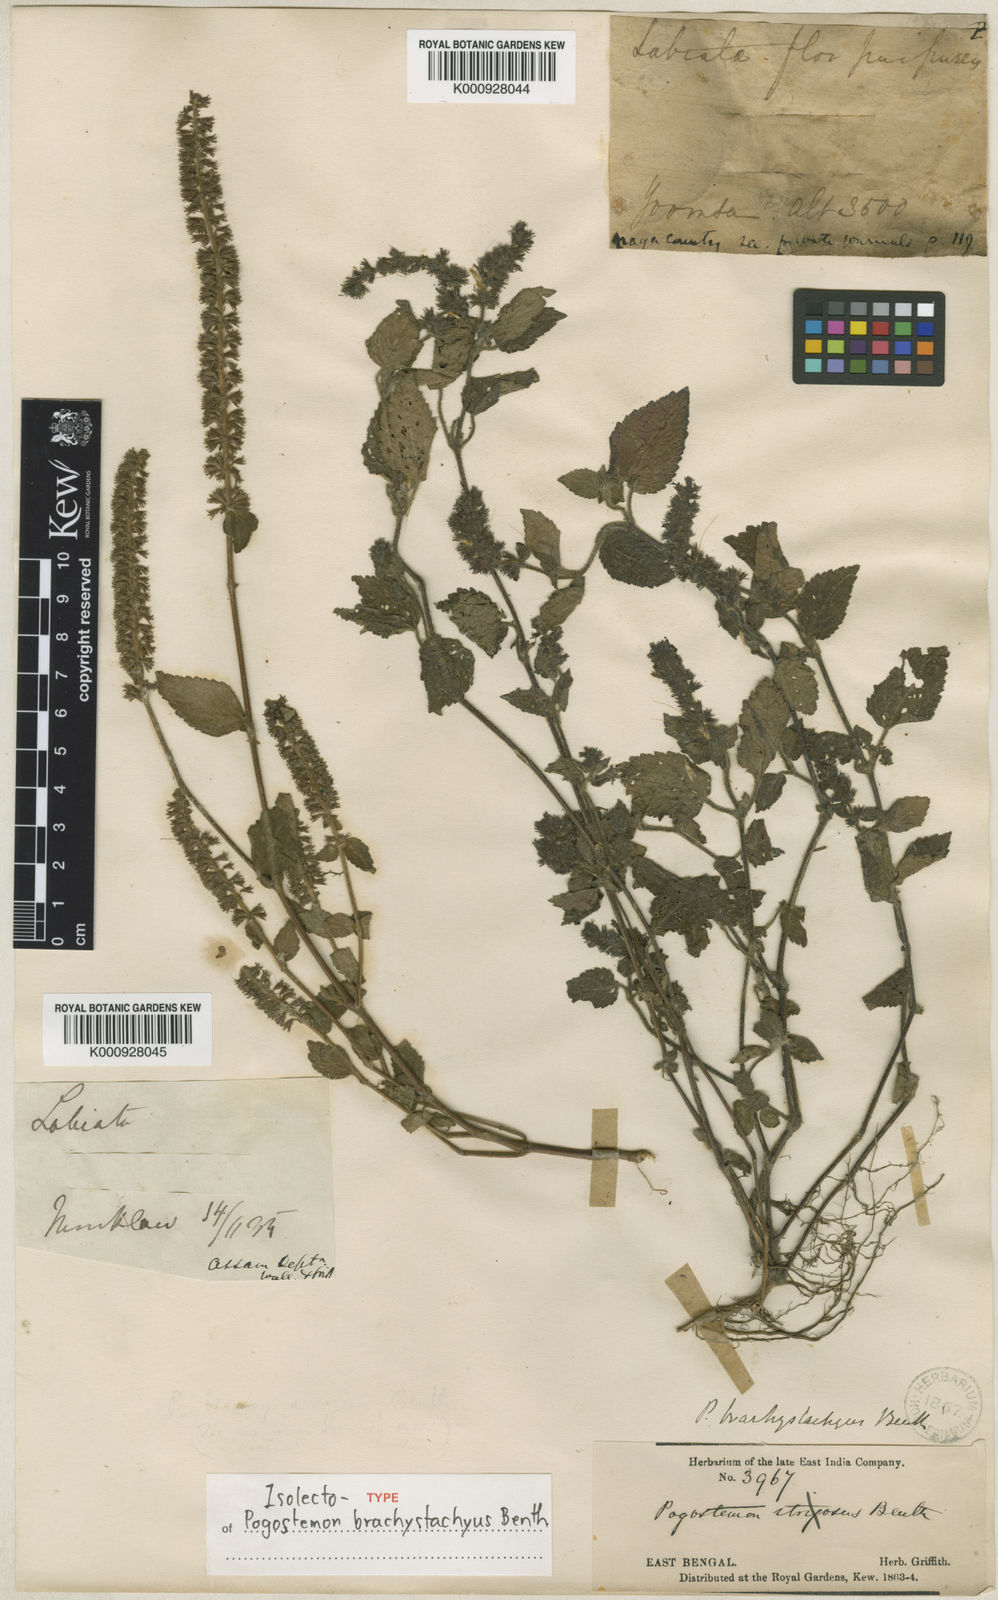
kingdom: Plantae
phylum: Tracheophyta
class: Magnoliopsida
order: Lamiales
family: Lamiaceae
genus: Pogostemon
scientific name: Pogostemon brachystachyus
